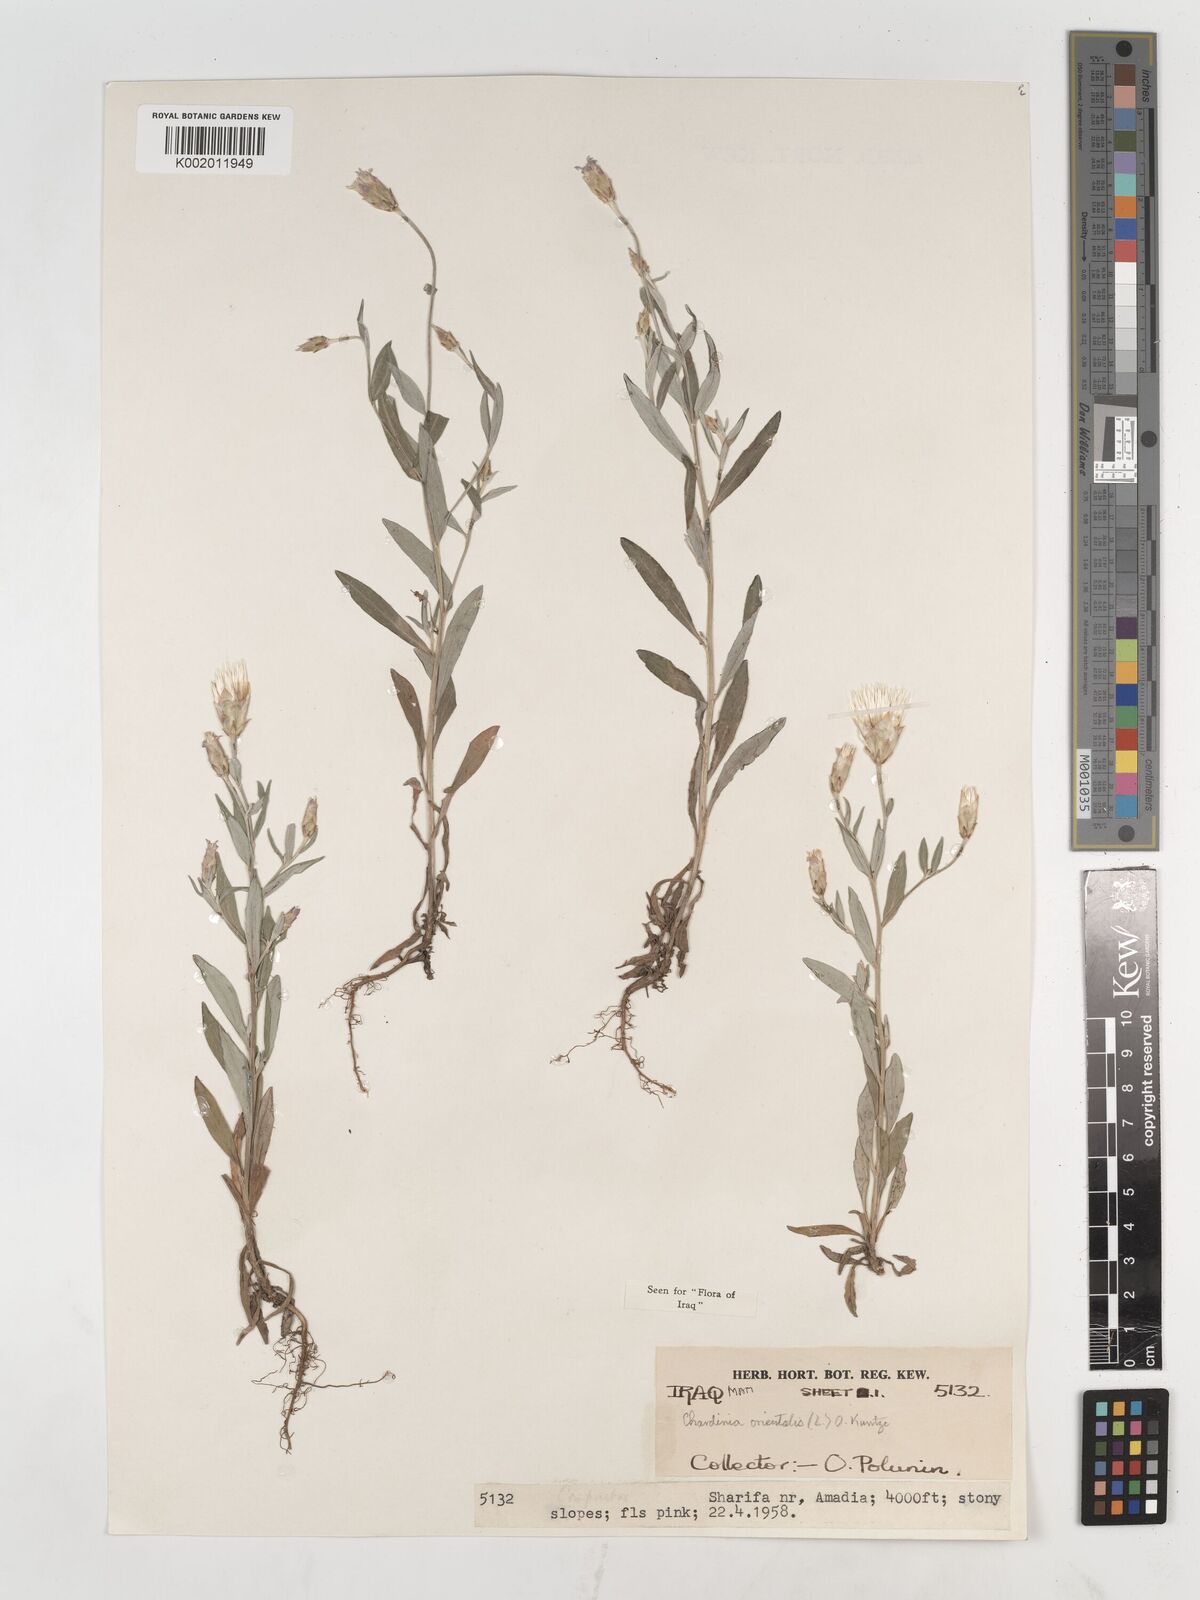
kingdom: Plantae
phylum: Tracheophyta
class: Magnoliopsida
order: Asterales
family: Asteraceae
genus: Chardinia
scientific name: Chardinia orientalis
